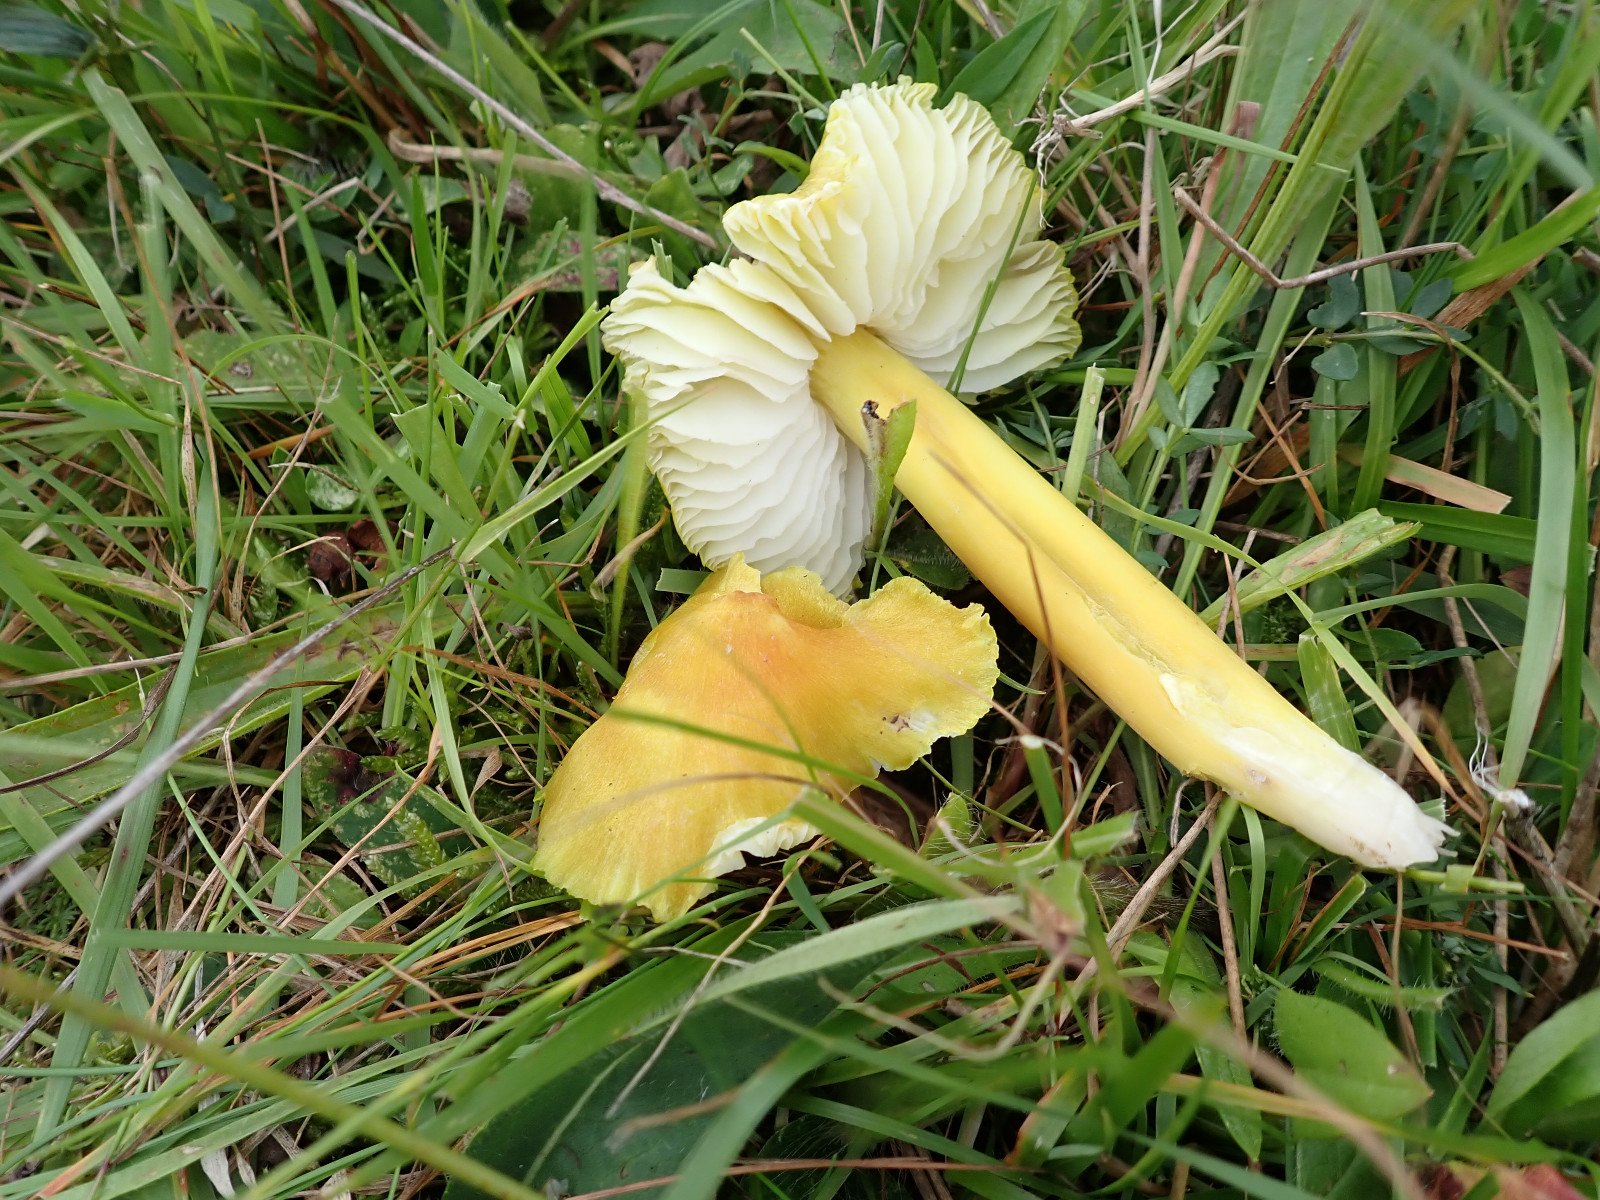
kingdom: Fungi
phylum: Basidiomycota
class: Agaricomycetes
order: Agaricales
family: Hygrophoraceae
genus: Hygrocybe
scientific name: Hygrocybe citrinovirens
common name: grøngul vokshat
